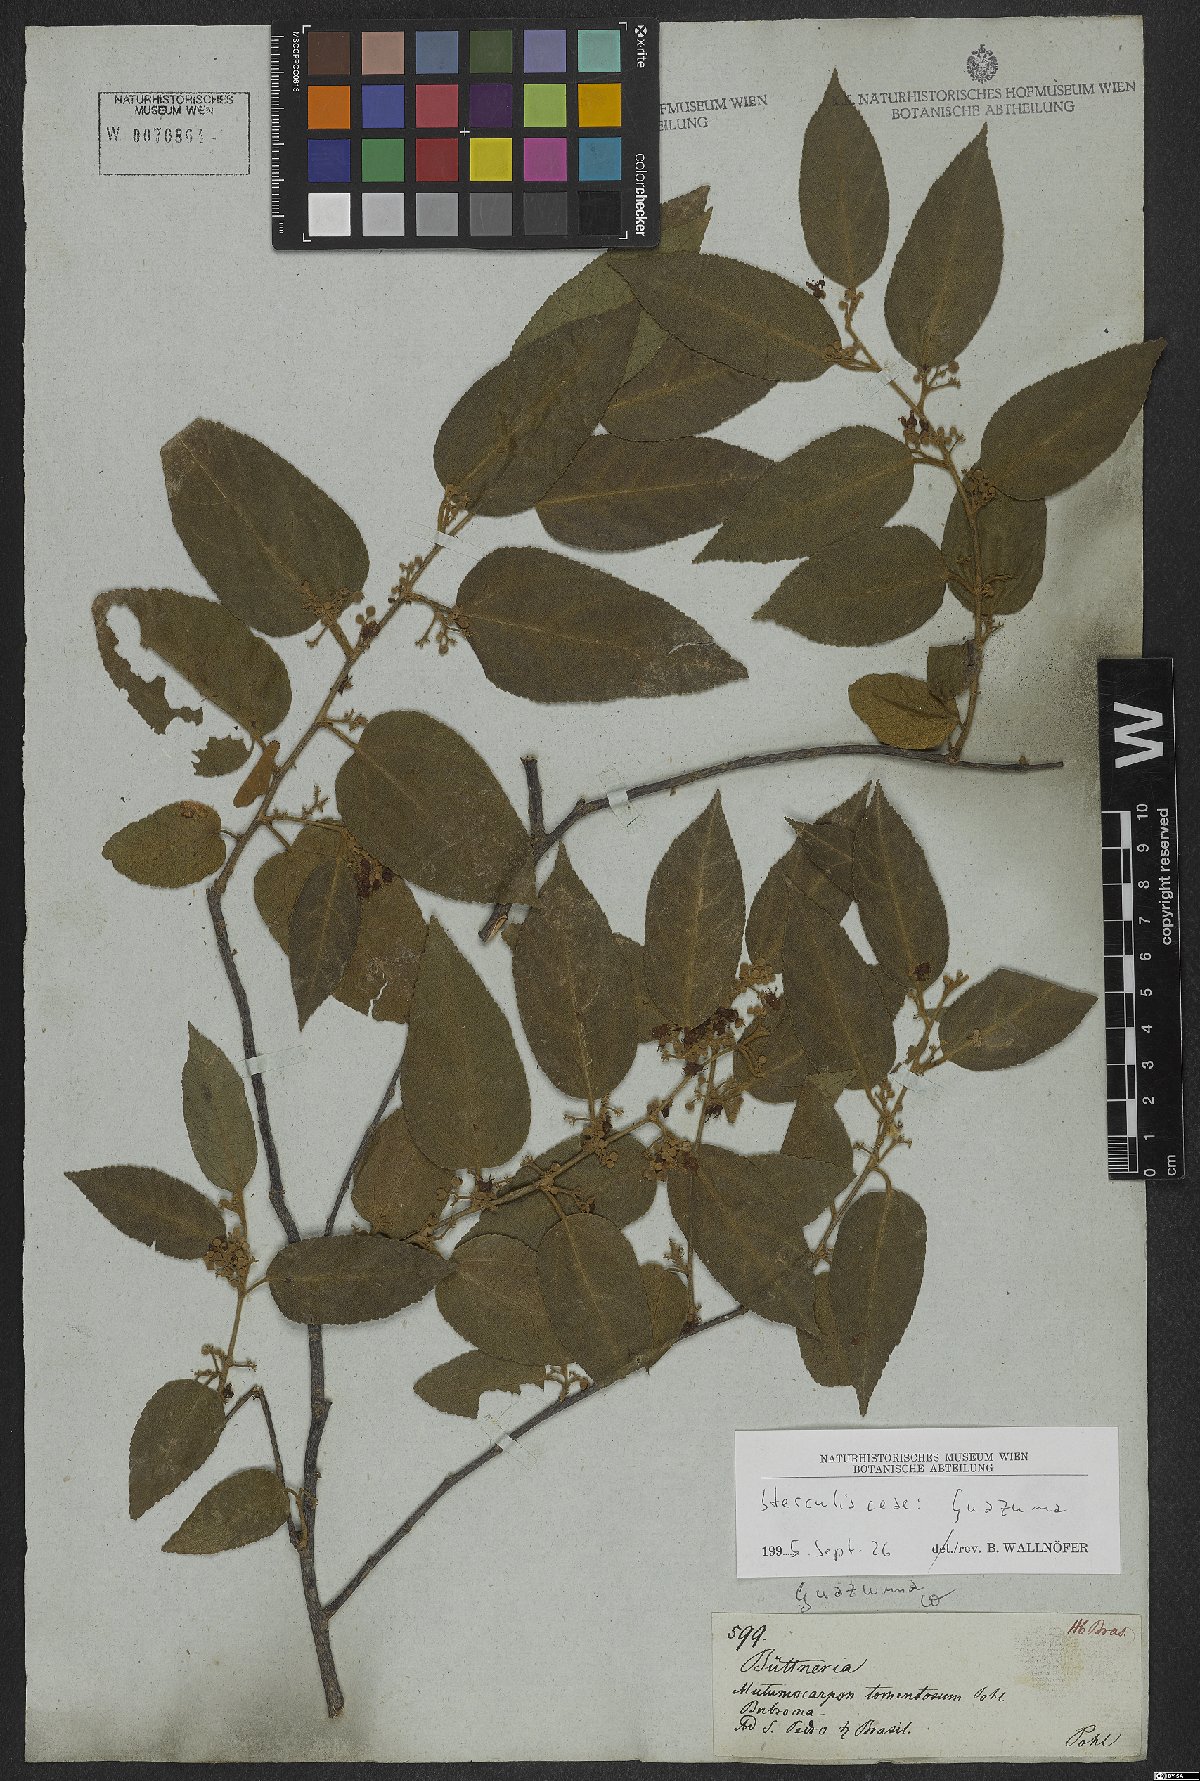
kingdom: Plantae
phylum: Tracheophyta
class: Magnoliopsida
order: Malvales
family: Malvaceae
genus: Guazuma
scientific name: Guazuma
